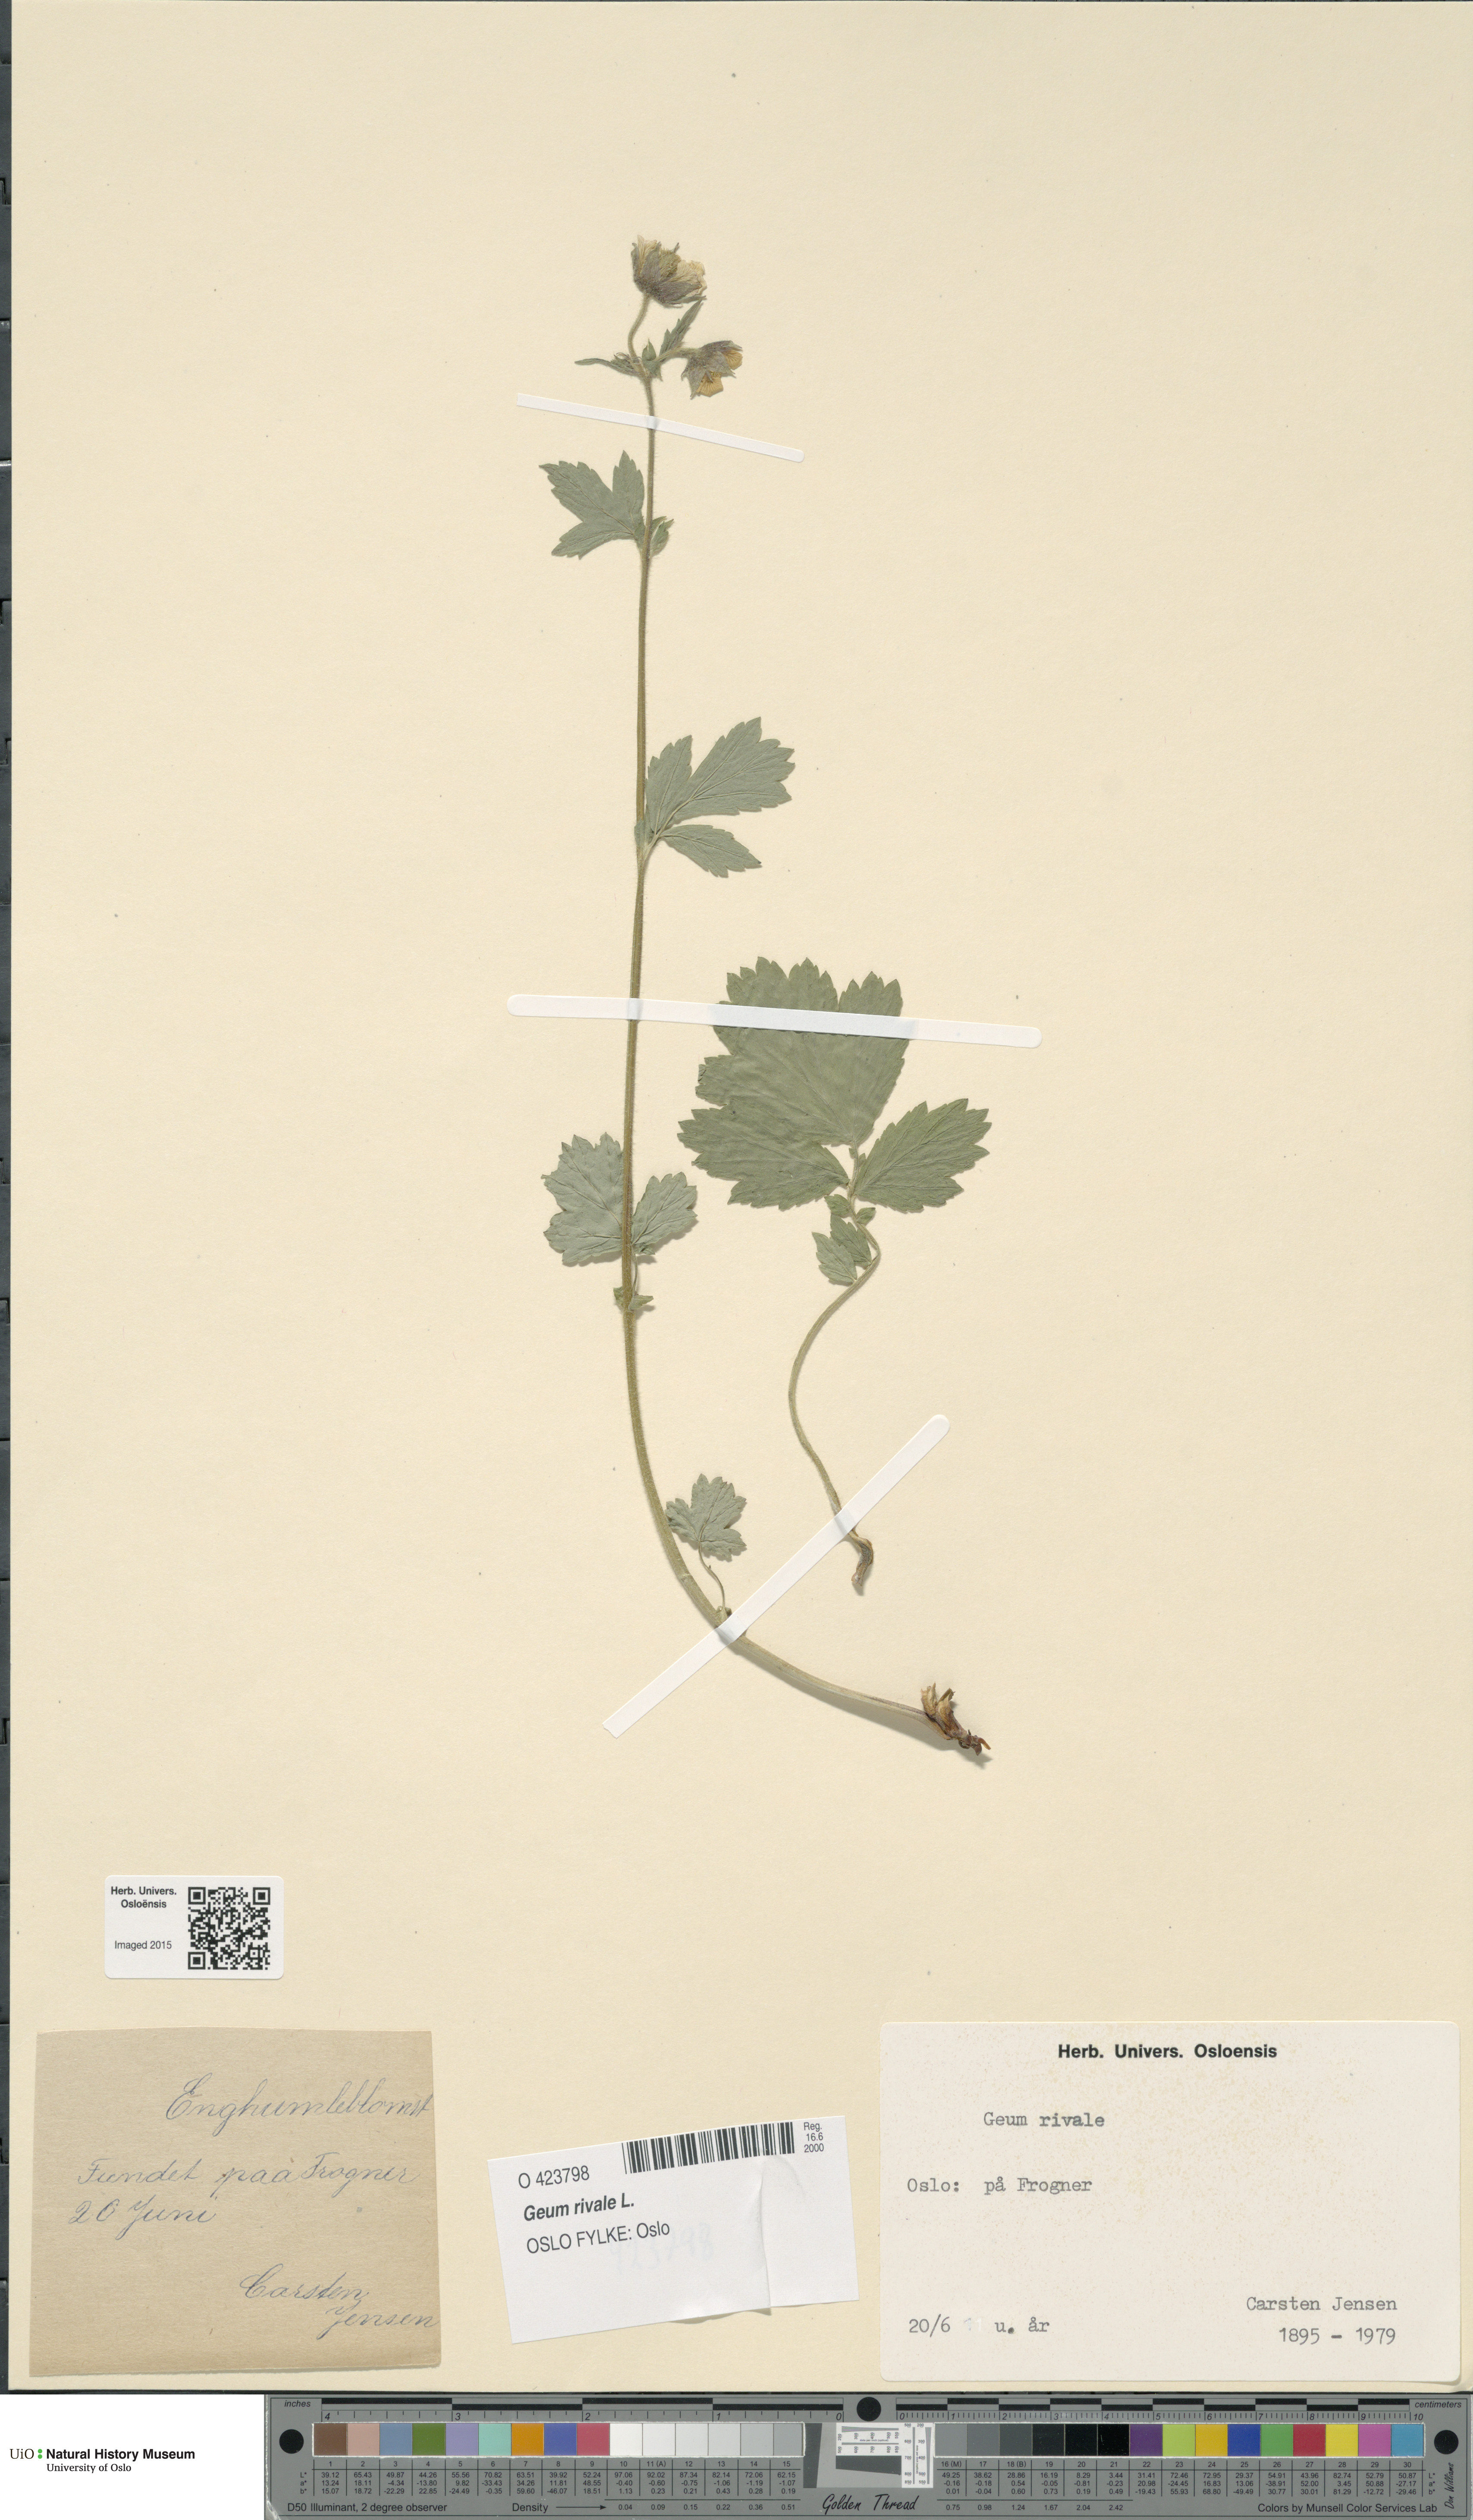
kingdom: Plantae
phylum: Tracheophyta
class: Magnoliopsida
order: Rosales
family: Rosaceae
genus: Geum
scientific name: Geum rivale
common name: Water avens
